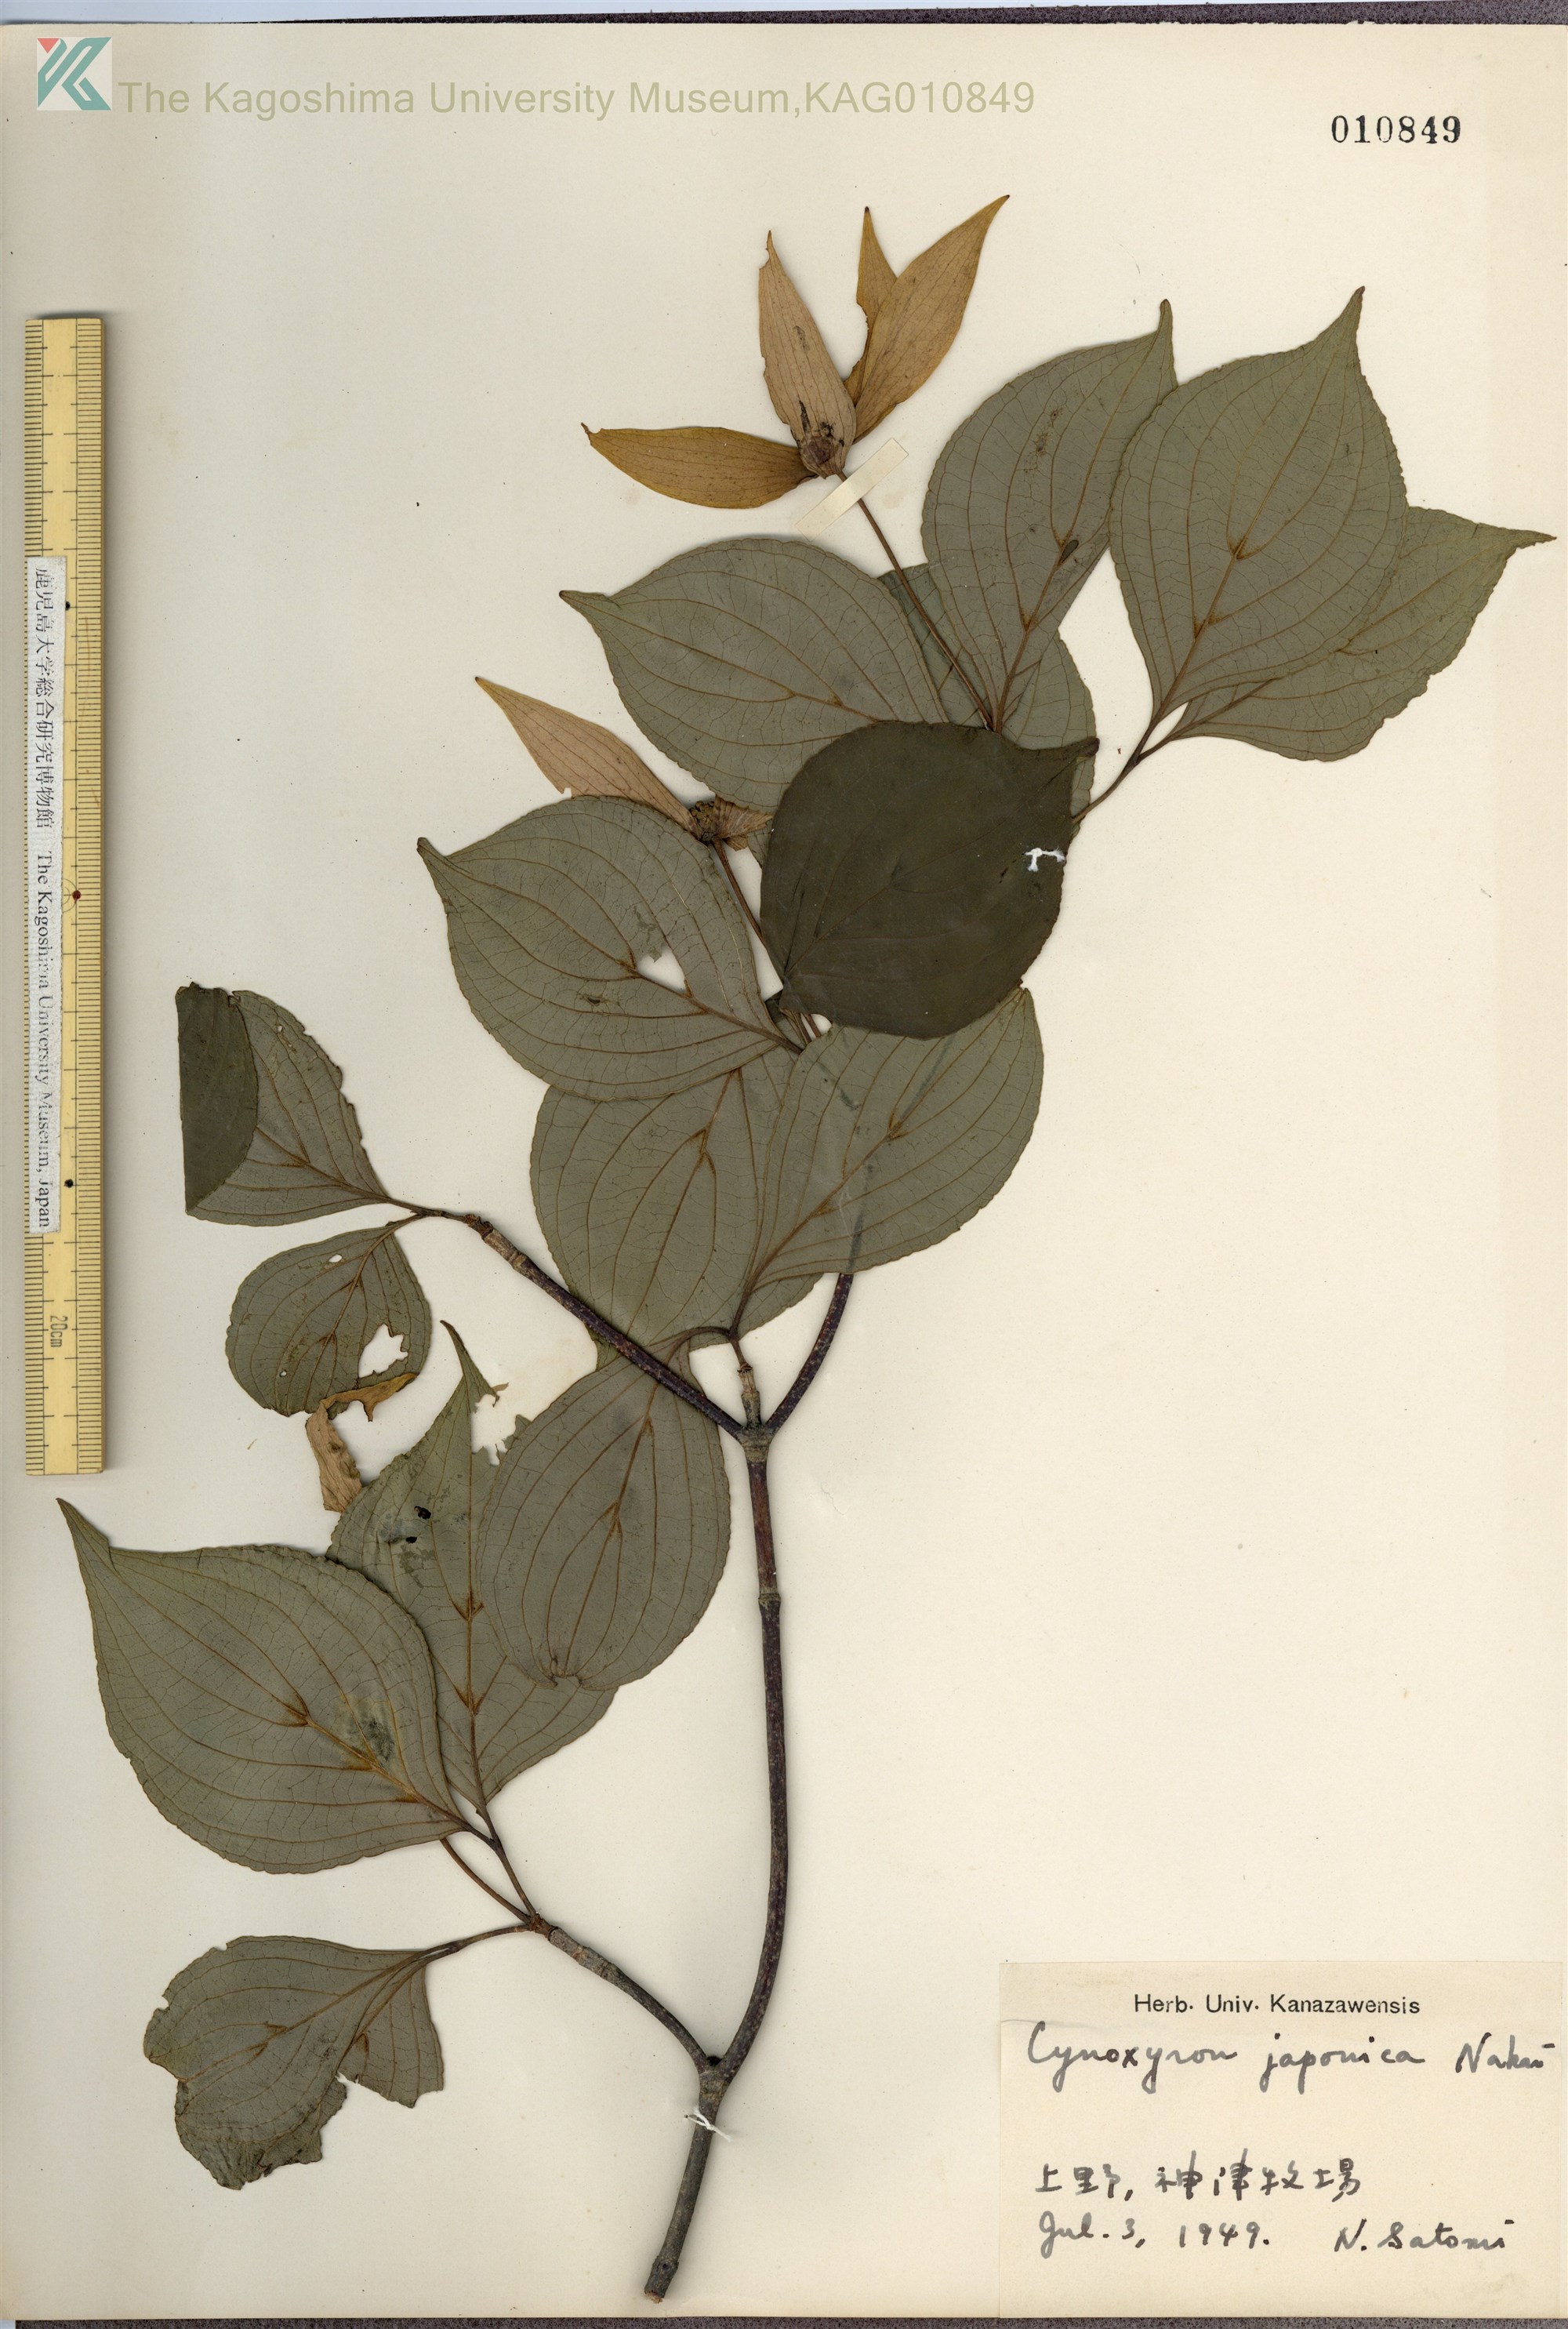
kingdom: Plantae
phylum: Tracheophyta
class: Magnoliopsida
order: Cornales
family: Cornaceae
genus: Cornus
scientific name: Cornus kousa
